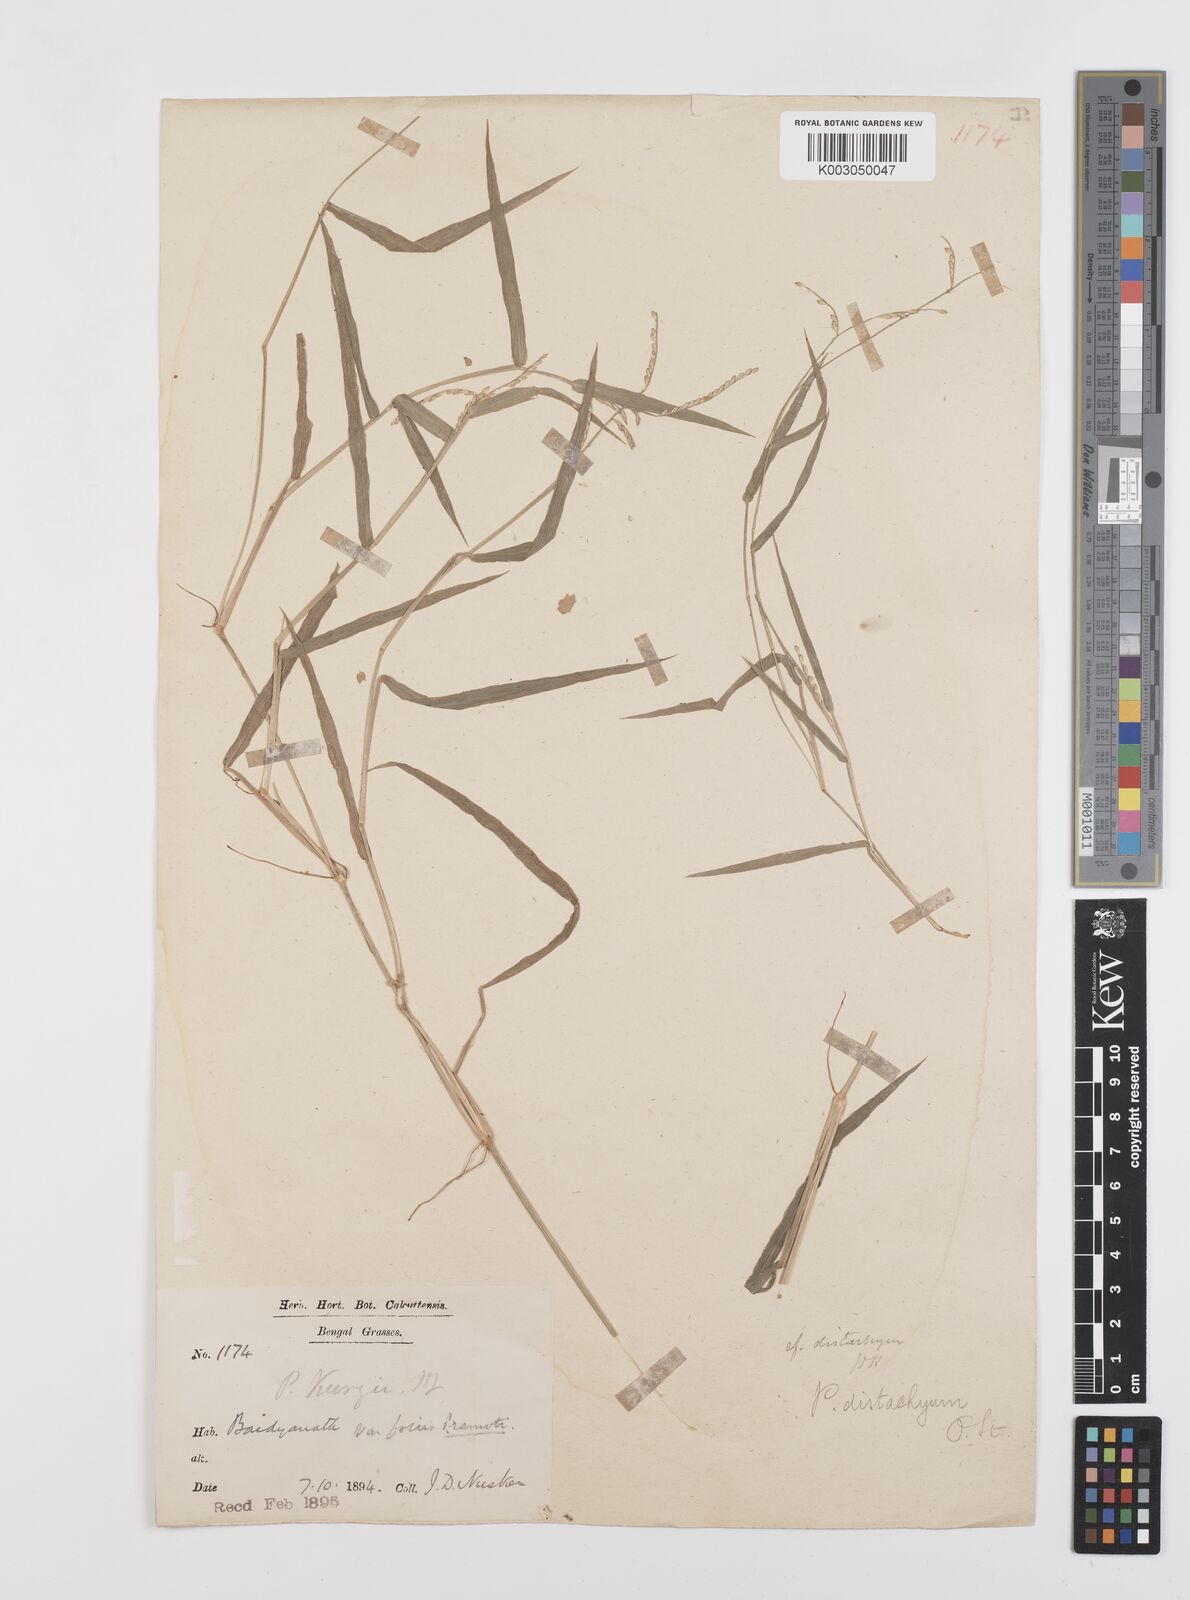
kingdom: Plantae
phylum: Tracheophyta
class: Liliopsida
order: Poales
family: Poaceae
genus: Urochloa
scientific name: Urochloa distachyos
